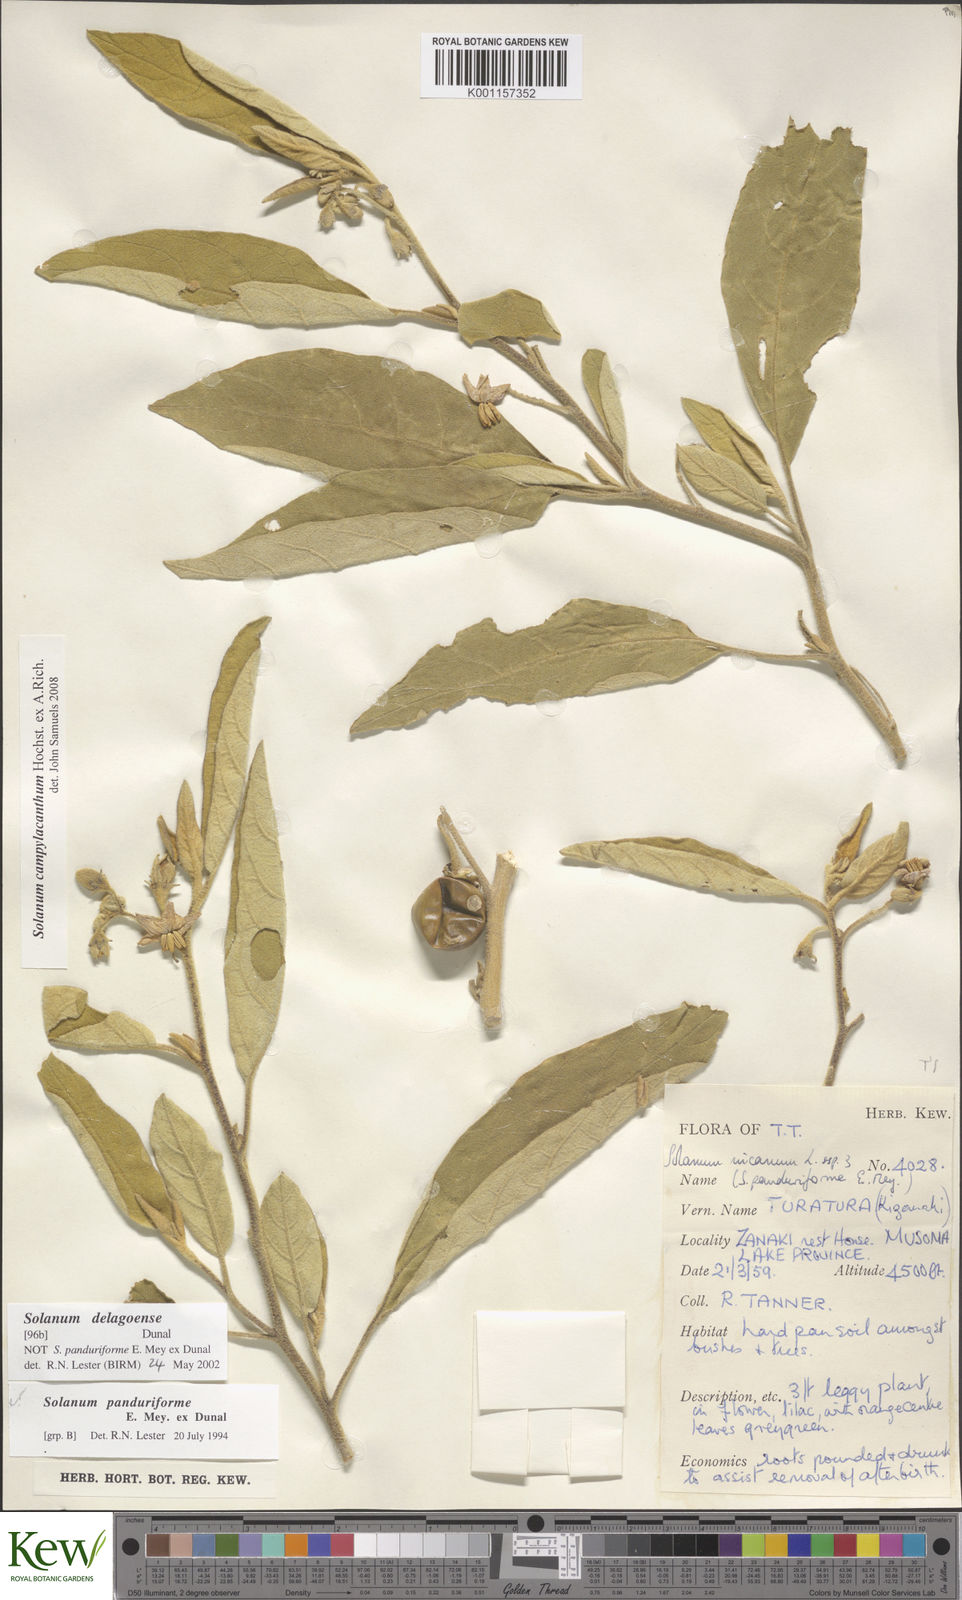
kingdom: Plantae
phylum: Tracheophyta
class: Magnoliopsida
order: Solanales
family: Solanaceae
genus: Solanum
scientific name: Solanum campylacanthum
